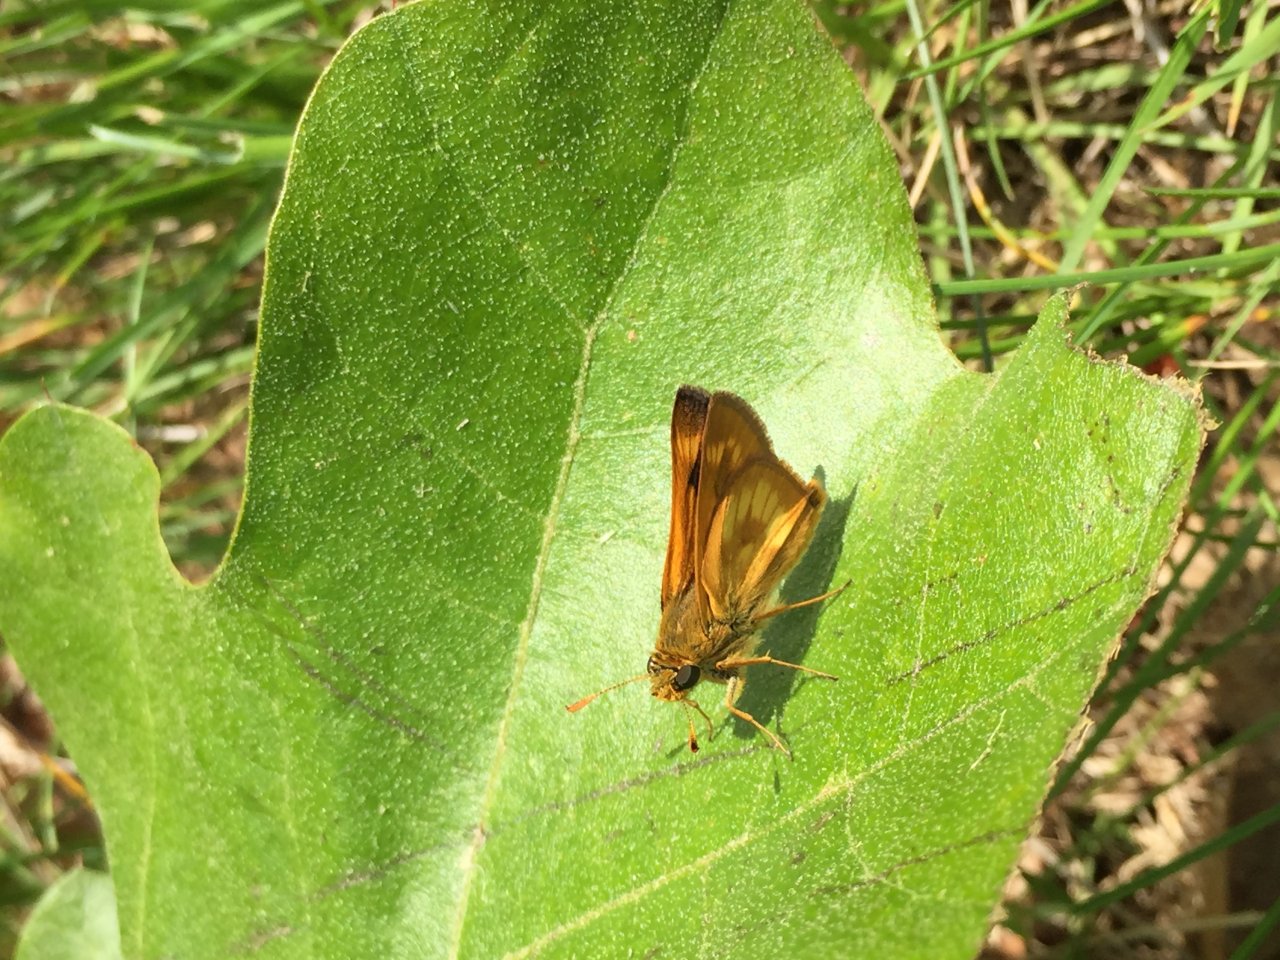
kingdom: Animalia
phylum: Arthropoda
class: Insecta
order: Lepidoptera
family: Hesperiidae
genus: Hesperia
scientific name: Hesperia sassacus
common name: Sassacus Skipper
